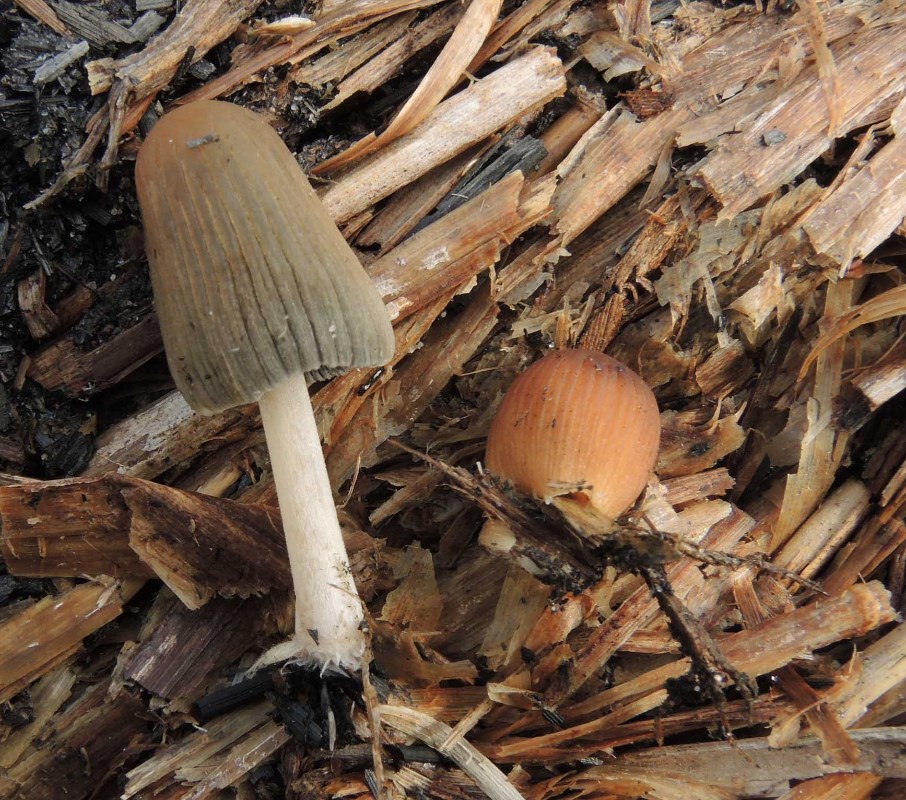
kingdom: Fungi
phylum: Basidiomycota
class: Agaricomycetes
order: Agaricales
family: Psathyrellaceae
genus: Tulosesus
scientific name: Tulosesus angulatus
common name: kul-blækhat
